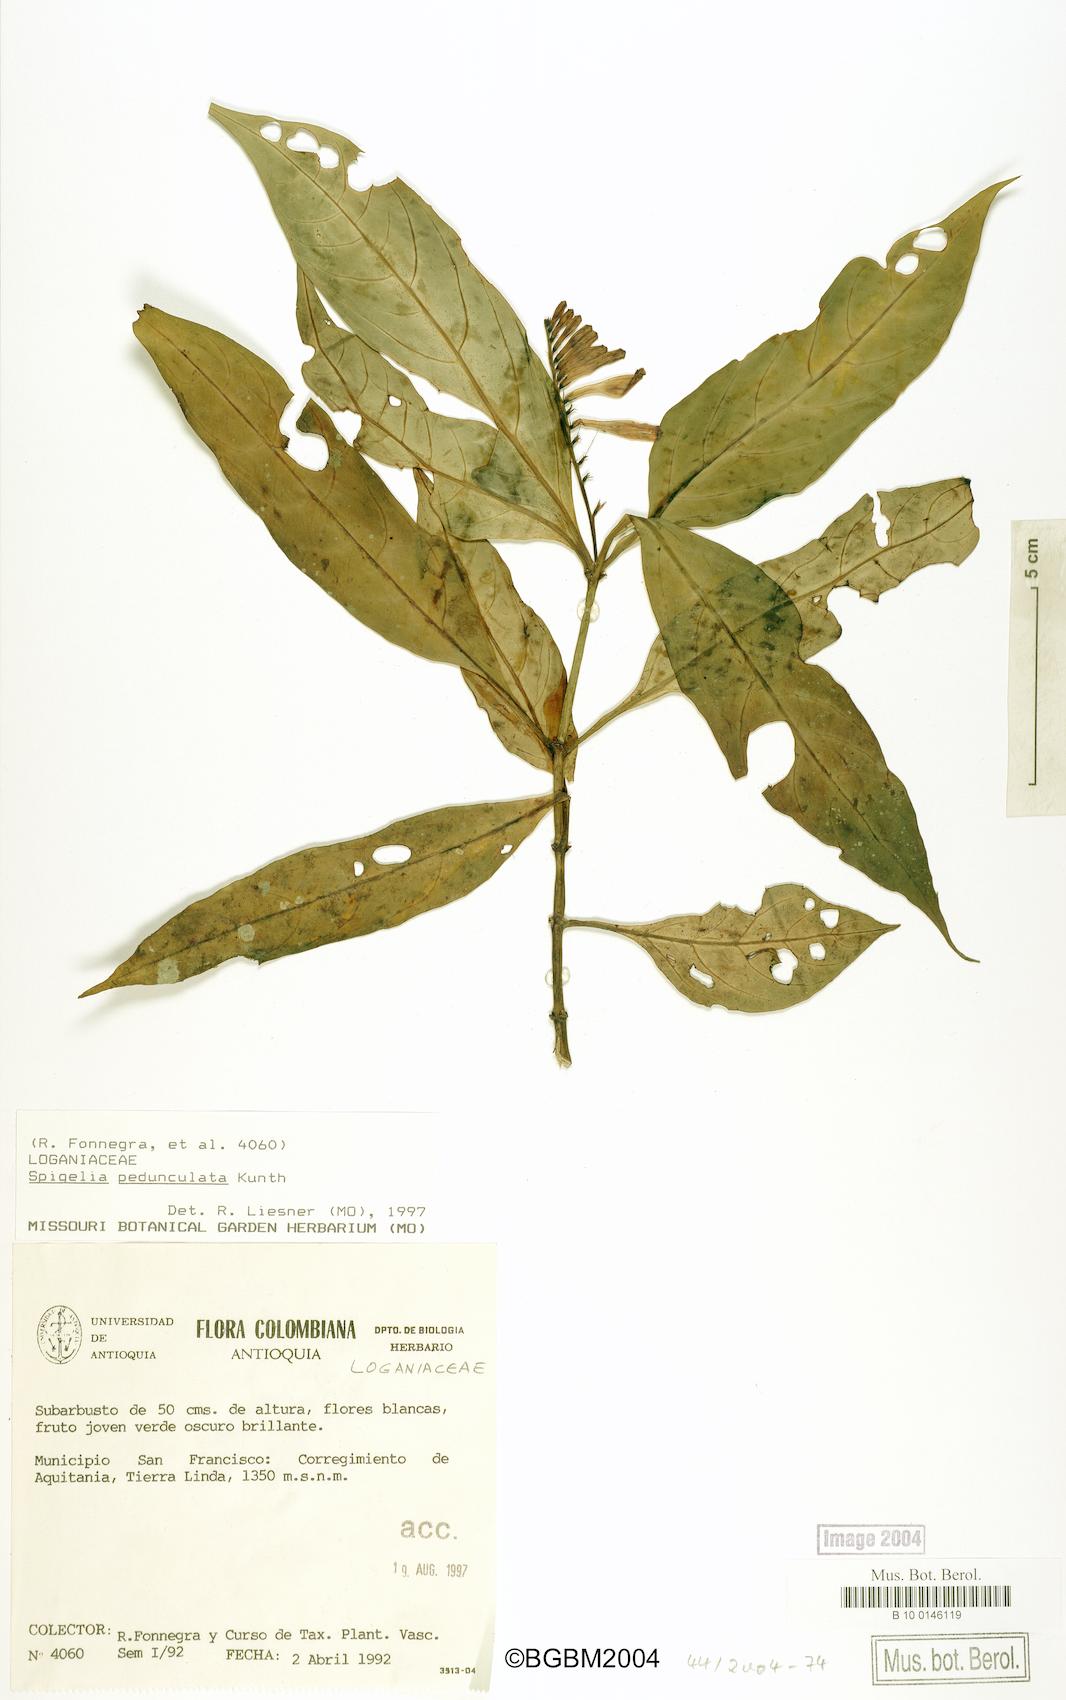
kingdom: Plantae
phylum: Tracheophyta
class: Magnoliopsida
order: Gentianales
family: Loganiaceae
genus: Spigelia
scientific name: Spigelia pedunculata
